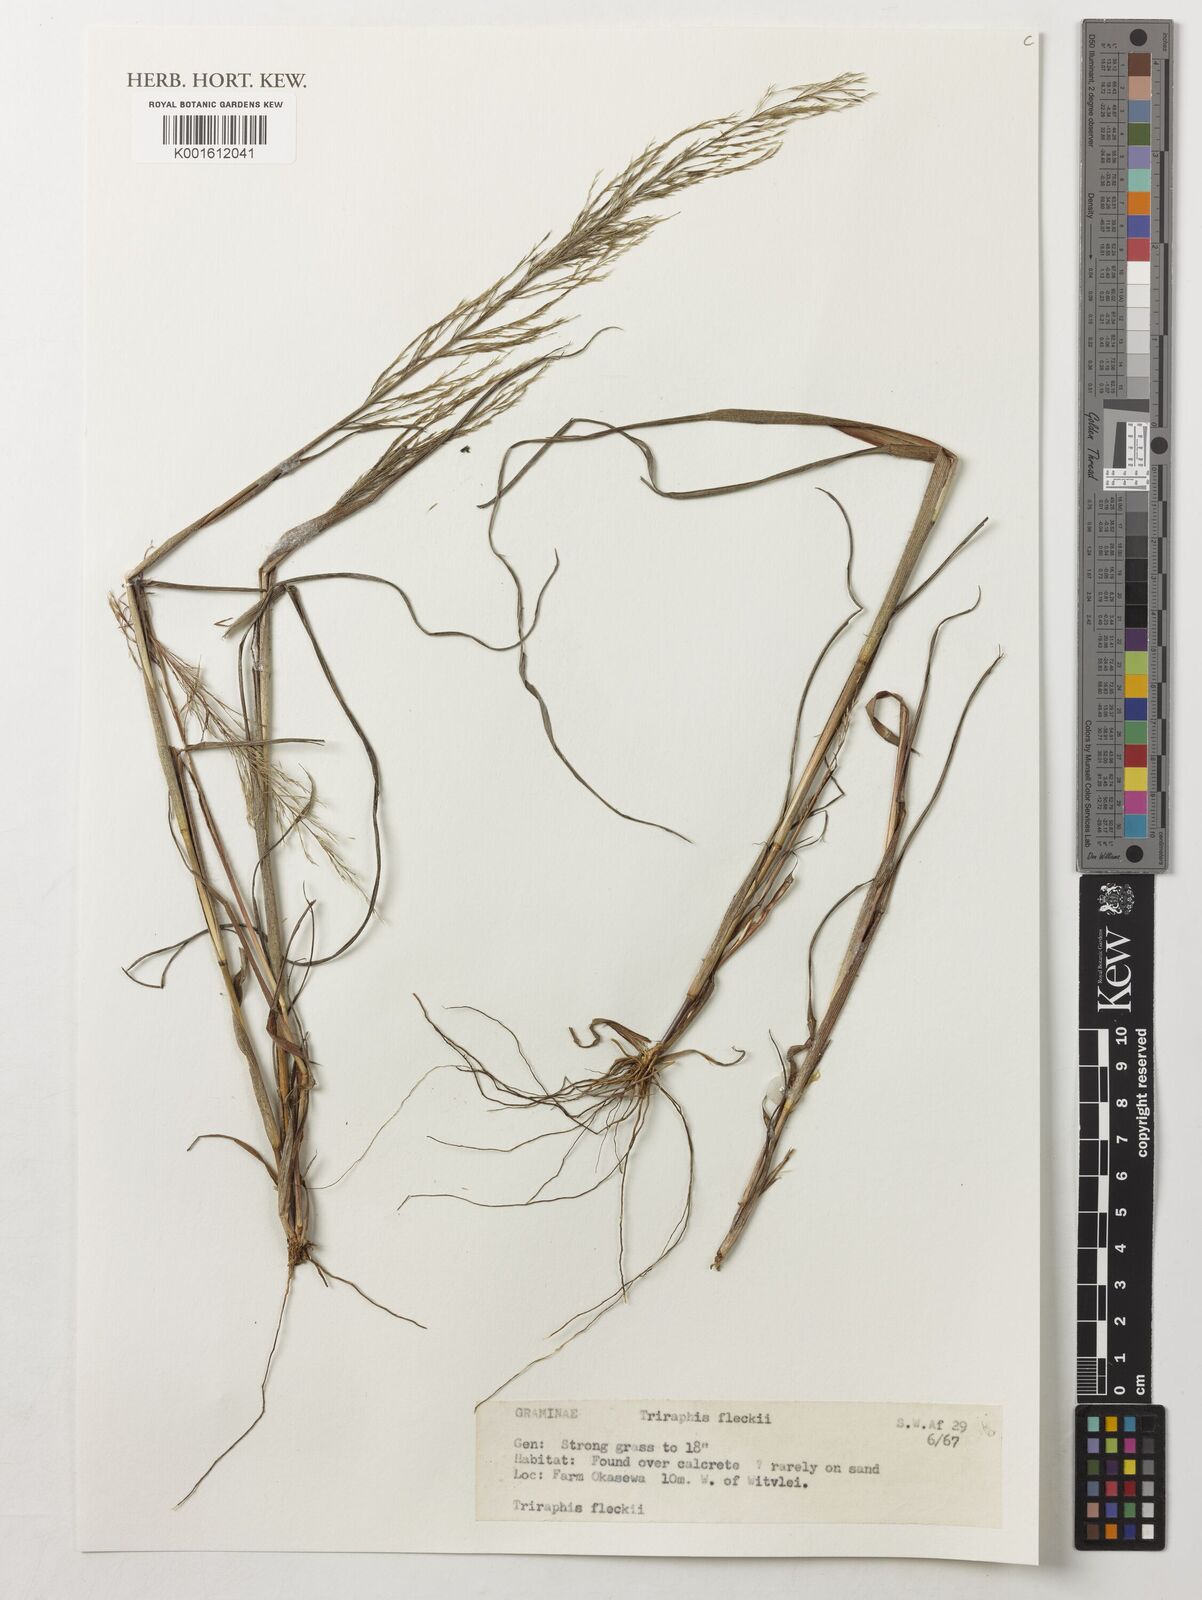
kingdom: Plantae
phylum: Tracheophyta
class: Liliopsida
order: Poales
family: Poaceae
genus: Triraphis
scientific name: Triraphis purpurea
